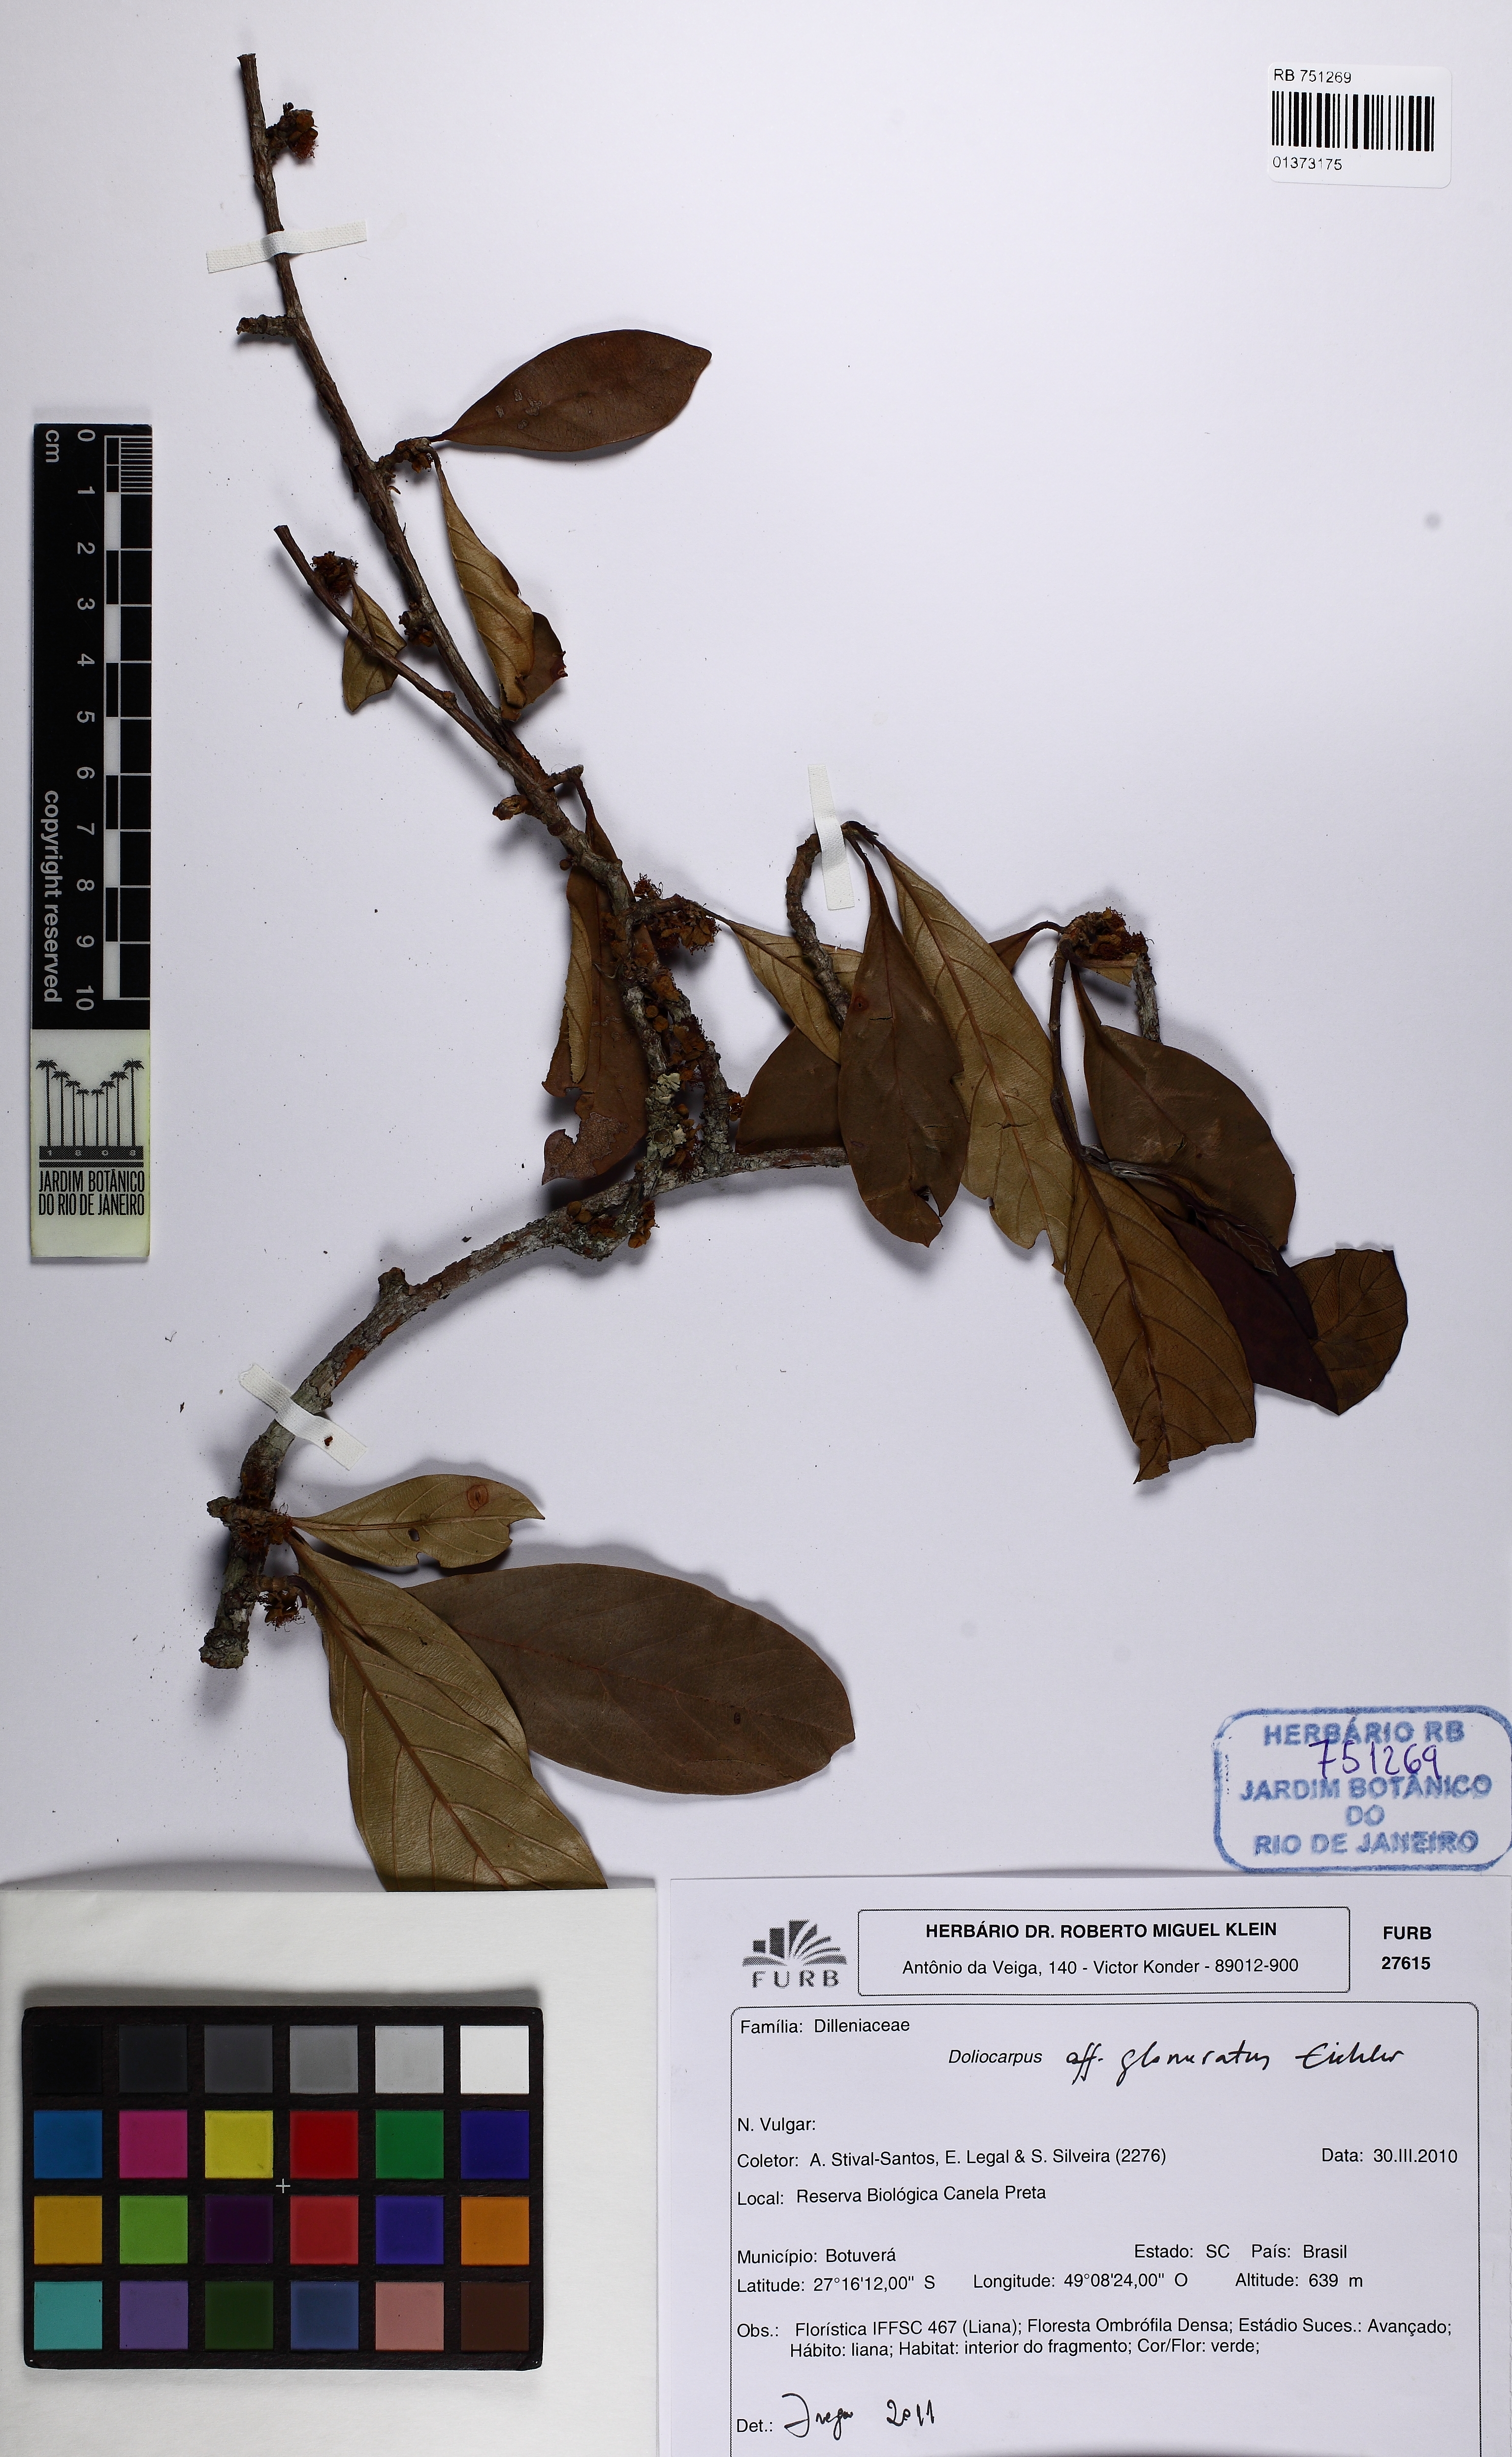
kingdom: Plantae
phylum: Tracheophyta
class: Magnoliopsida
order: Dilleniales
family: Dilleniaceae
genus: Doliocarpus
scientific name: Doliocarpus glomeratus
